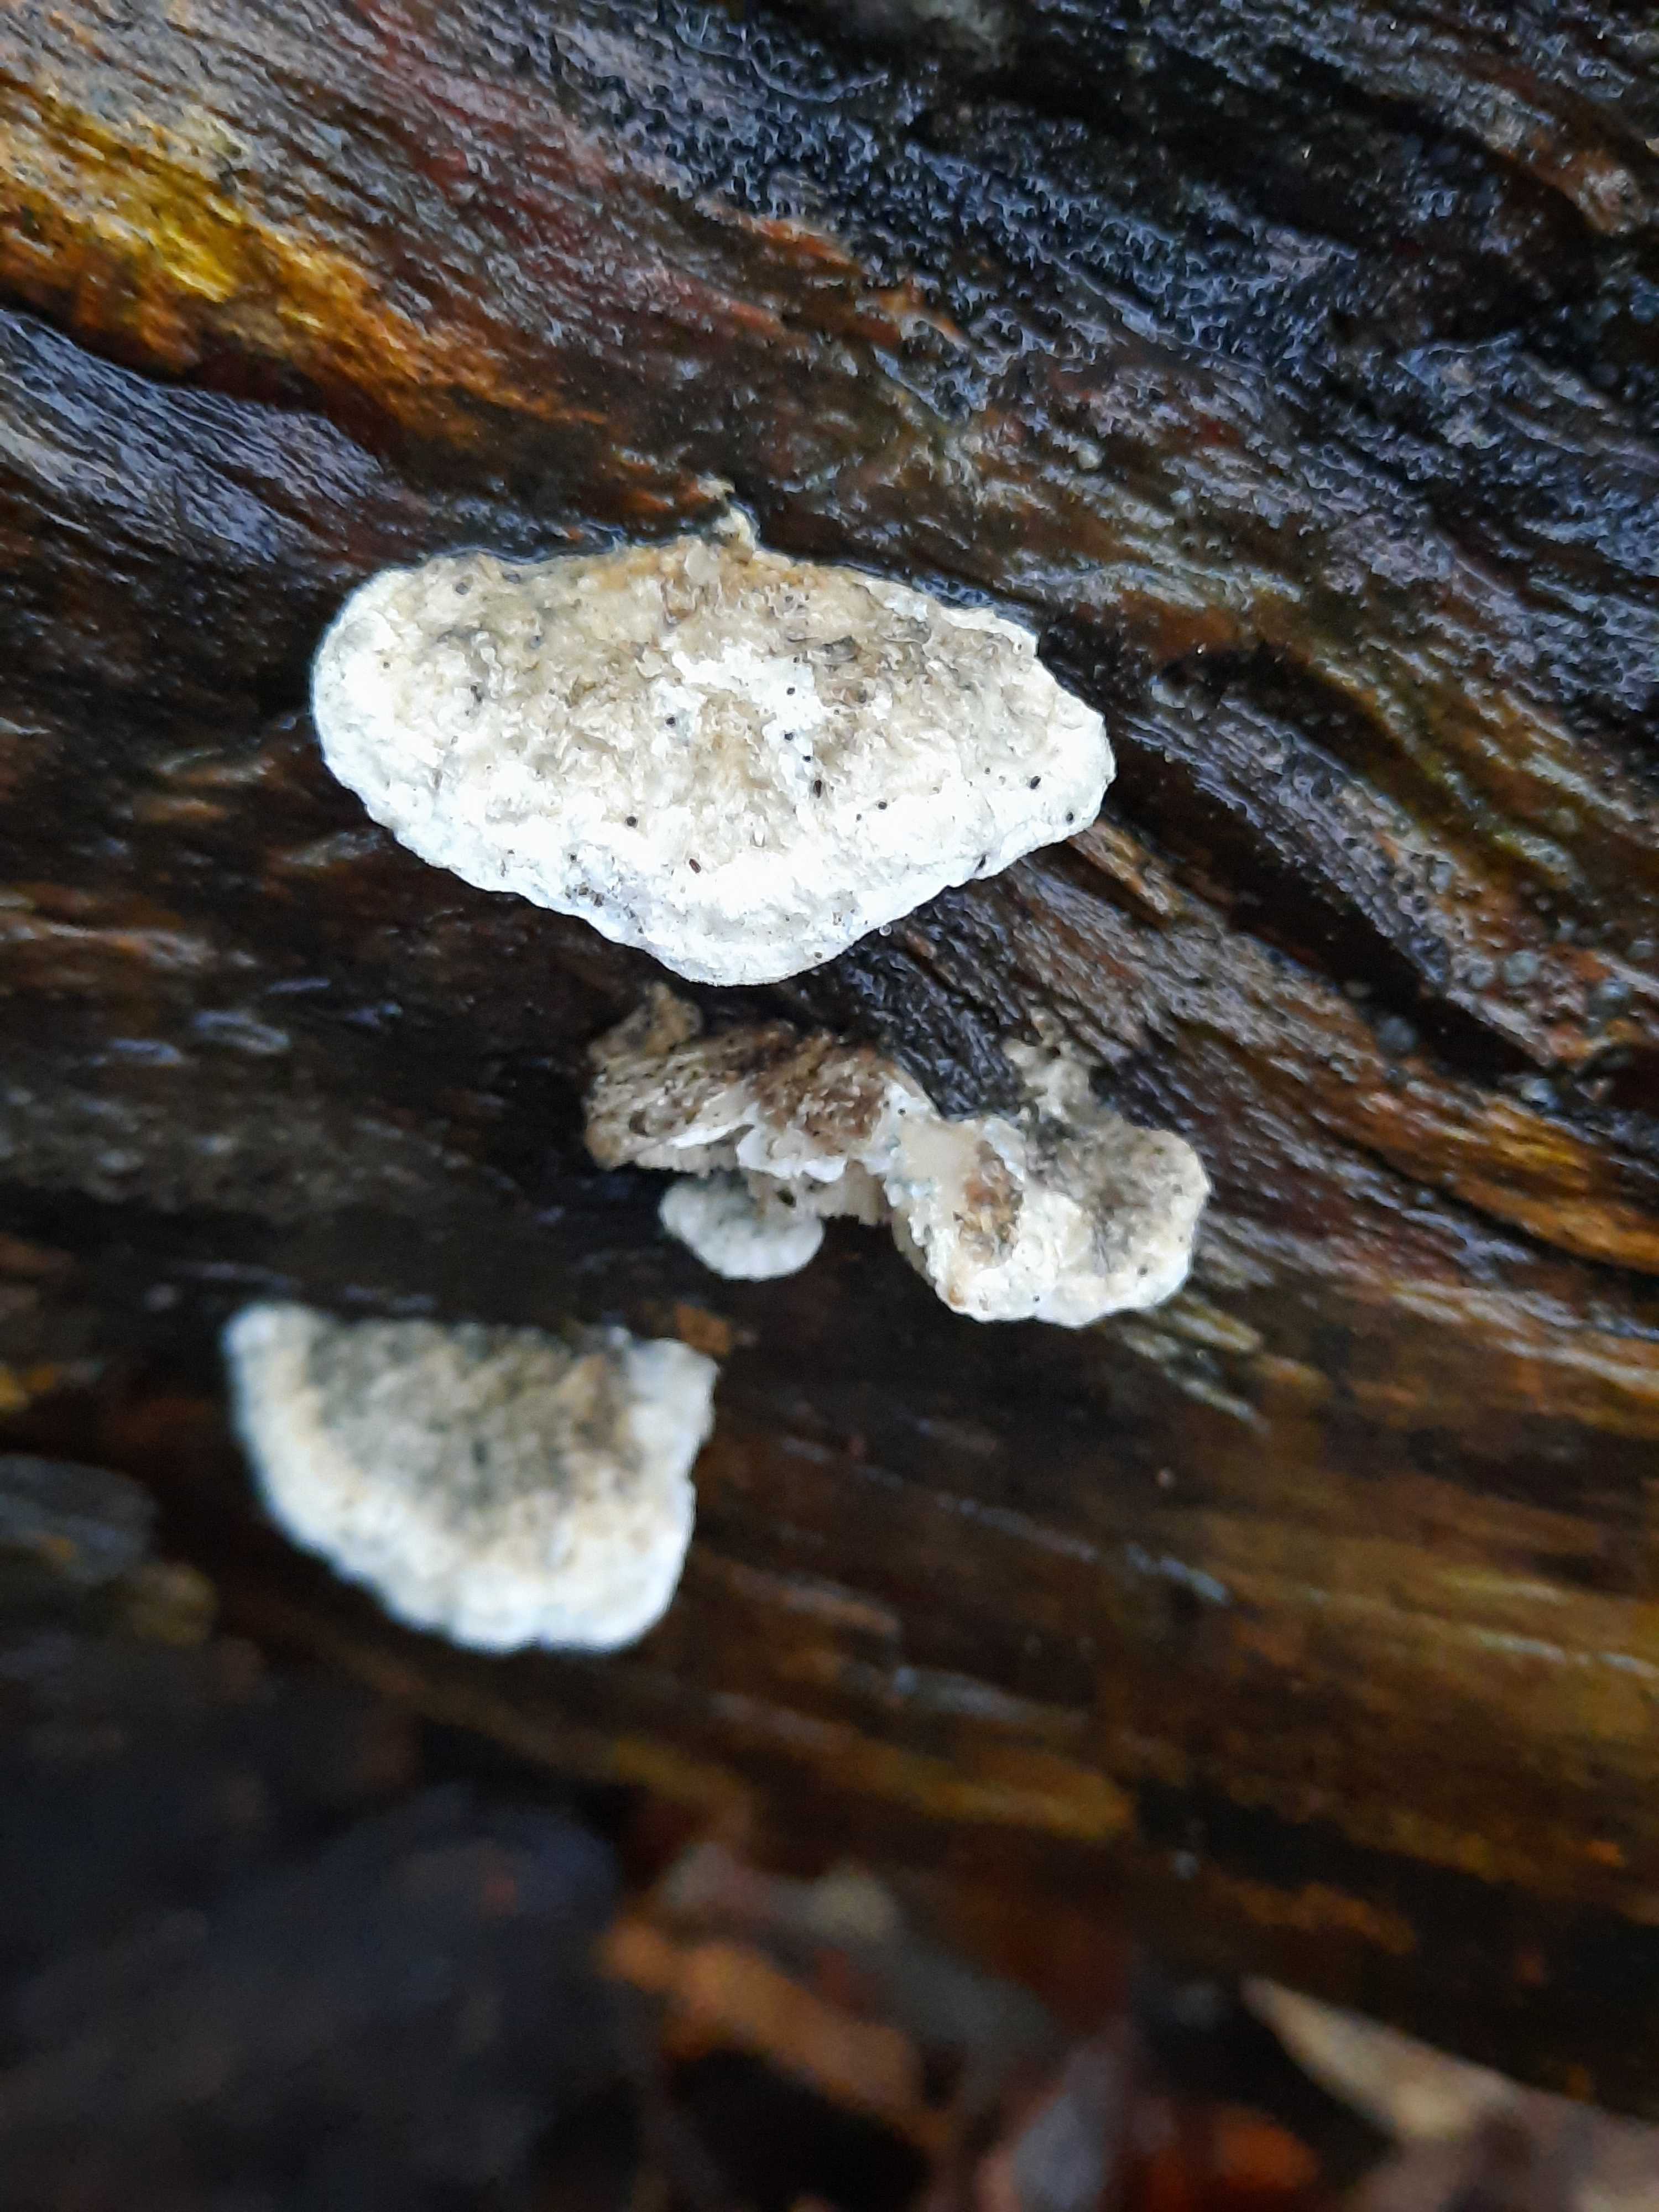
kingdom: Fungi
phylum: Basidiomycota
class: Agaricomycetes
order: Polyporales
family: Dacryobolaceae
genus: Postia
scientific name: Postia
